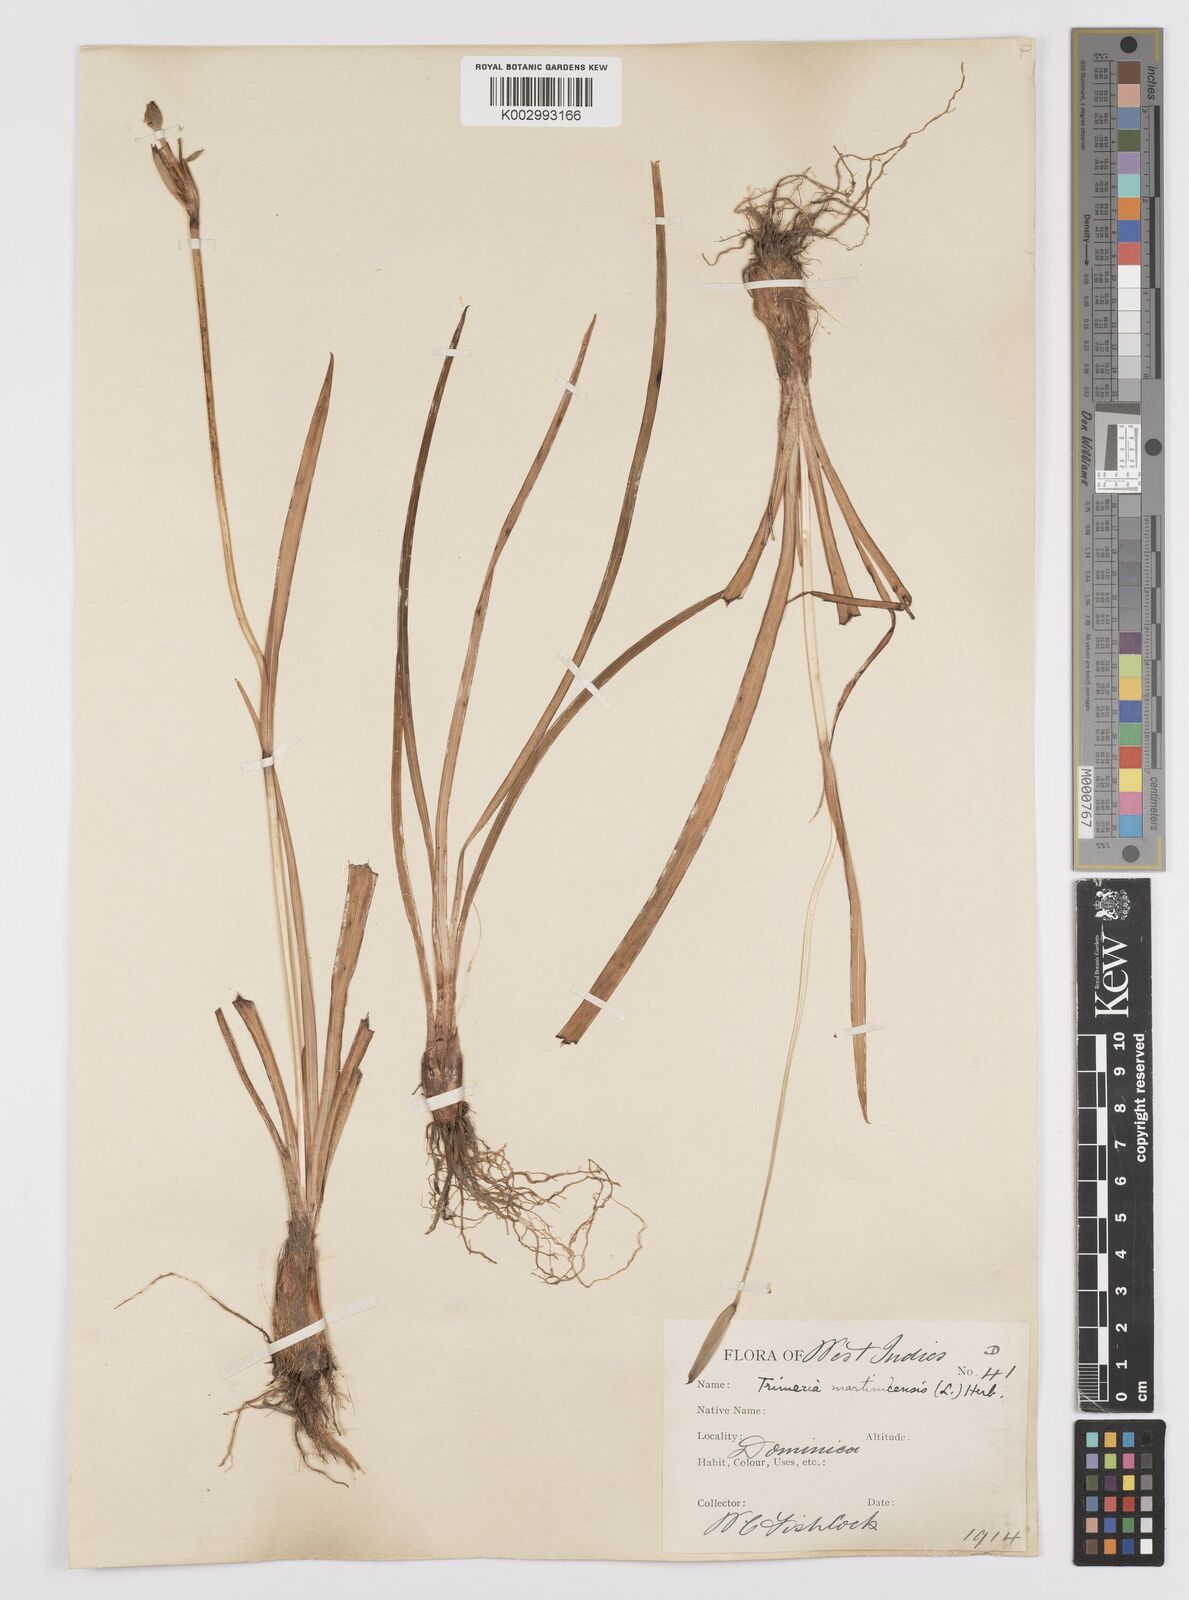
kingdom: Plantae
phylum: Tracheophyta
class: Liliopsida
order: Asparagales
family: Iridaceae
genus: Trimezia
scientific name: Trimezia martinicensis
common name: Martinique trimezia
